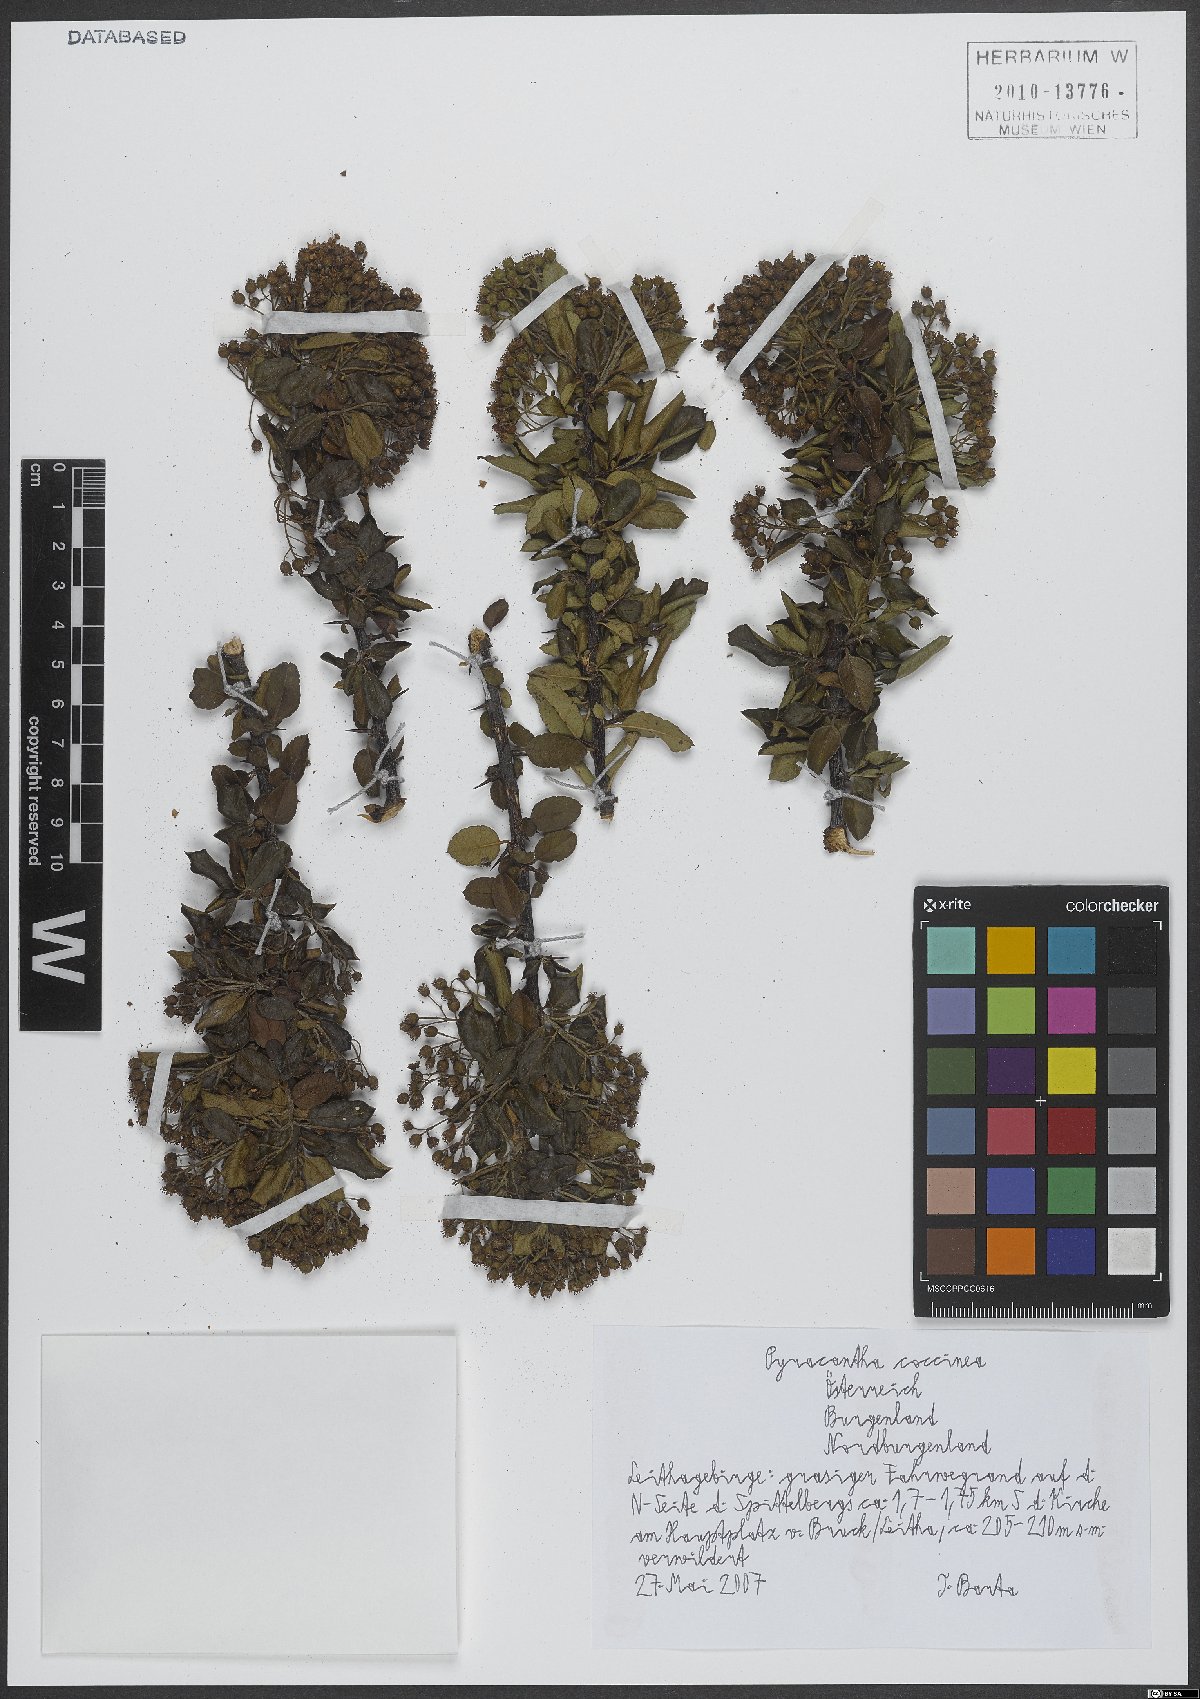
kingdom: Plantae
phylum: Tracheophyta
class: Magnoliopsida
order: Rosales
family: Rosaceae
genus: Pyracantha
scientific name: Pyracantha coccinea
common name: Firethorn
